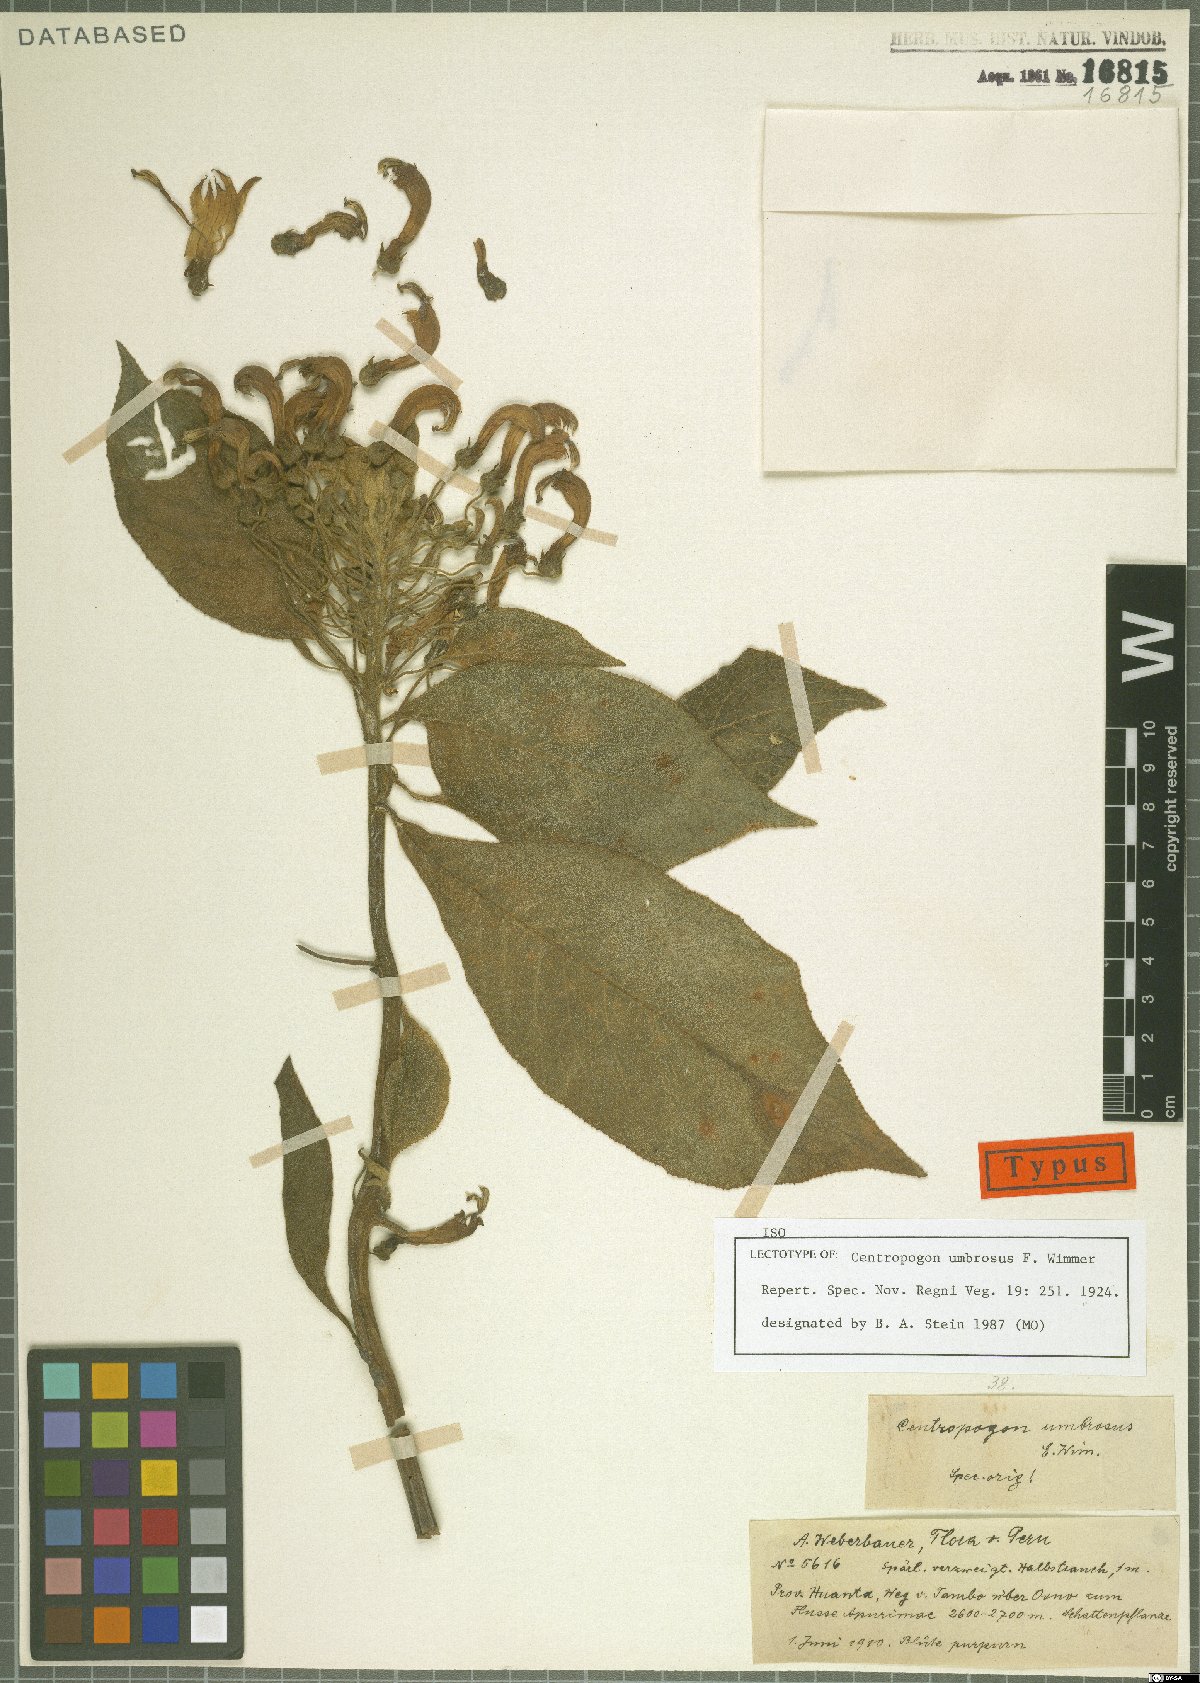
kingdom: Plantae
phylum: Tracheophyta
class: Magnoliopsida
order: Asterales
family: Campanulaceae
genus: Centropogon
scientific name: Centropogon umbrosus
